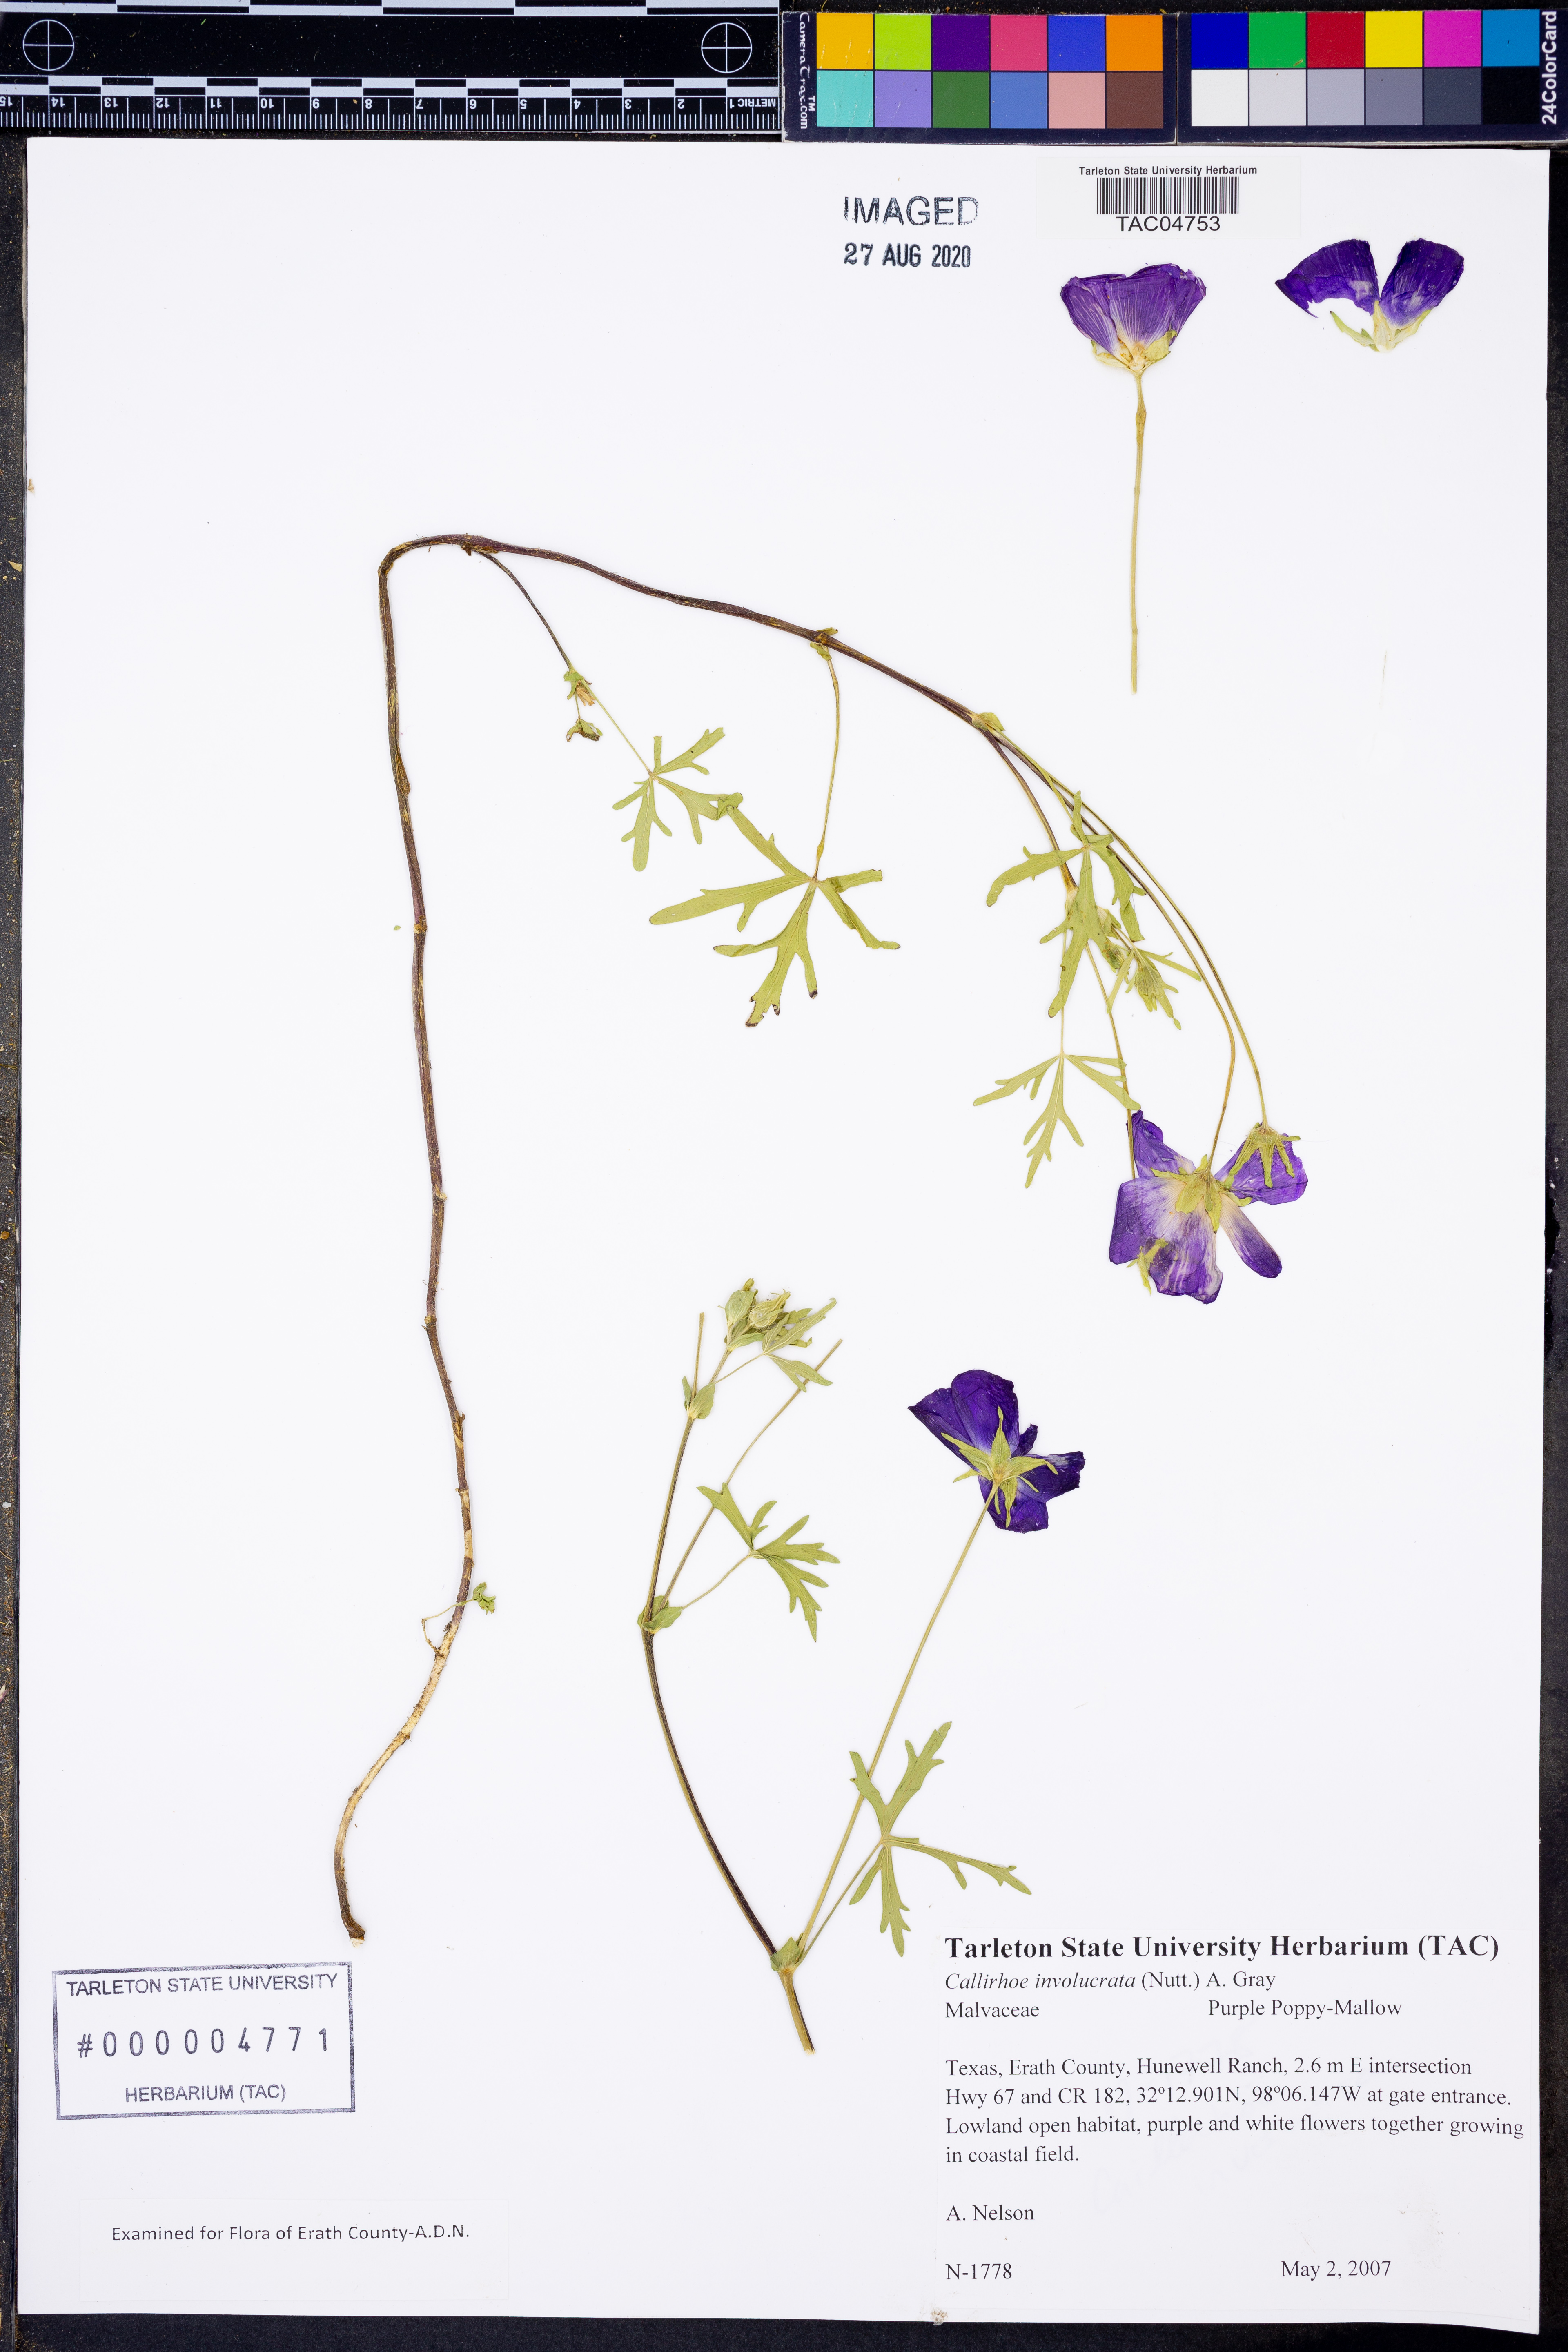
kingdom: Plantae
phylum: Tracheophyta
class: Magnoliopsida
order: Malvales
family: Malvaceae
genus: Callirhoe
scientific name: Callirhoe involucrata
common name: Purple poppy-mallow
